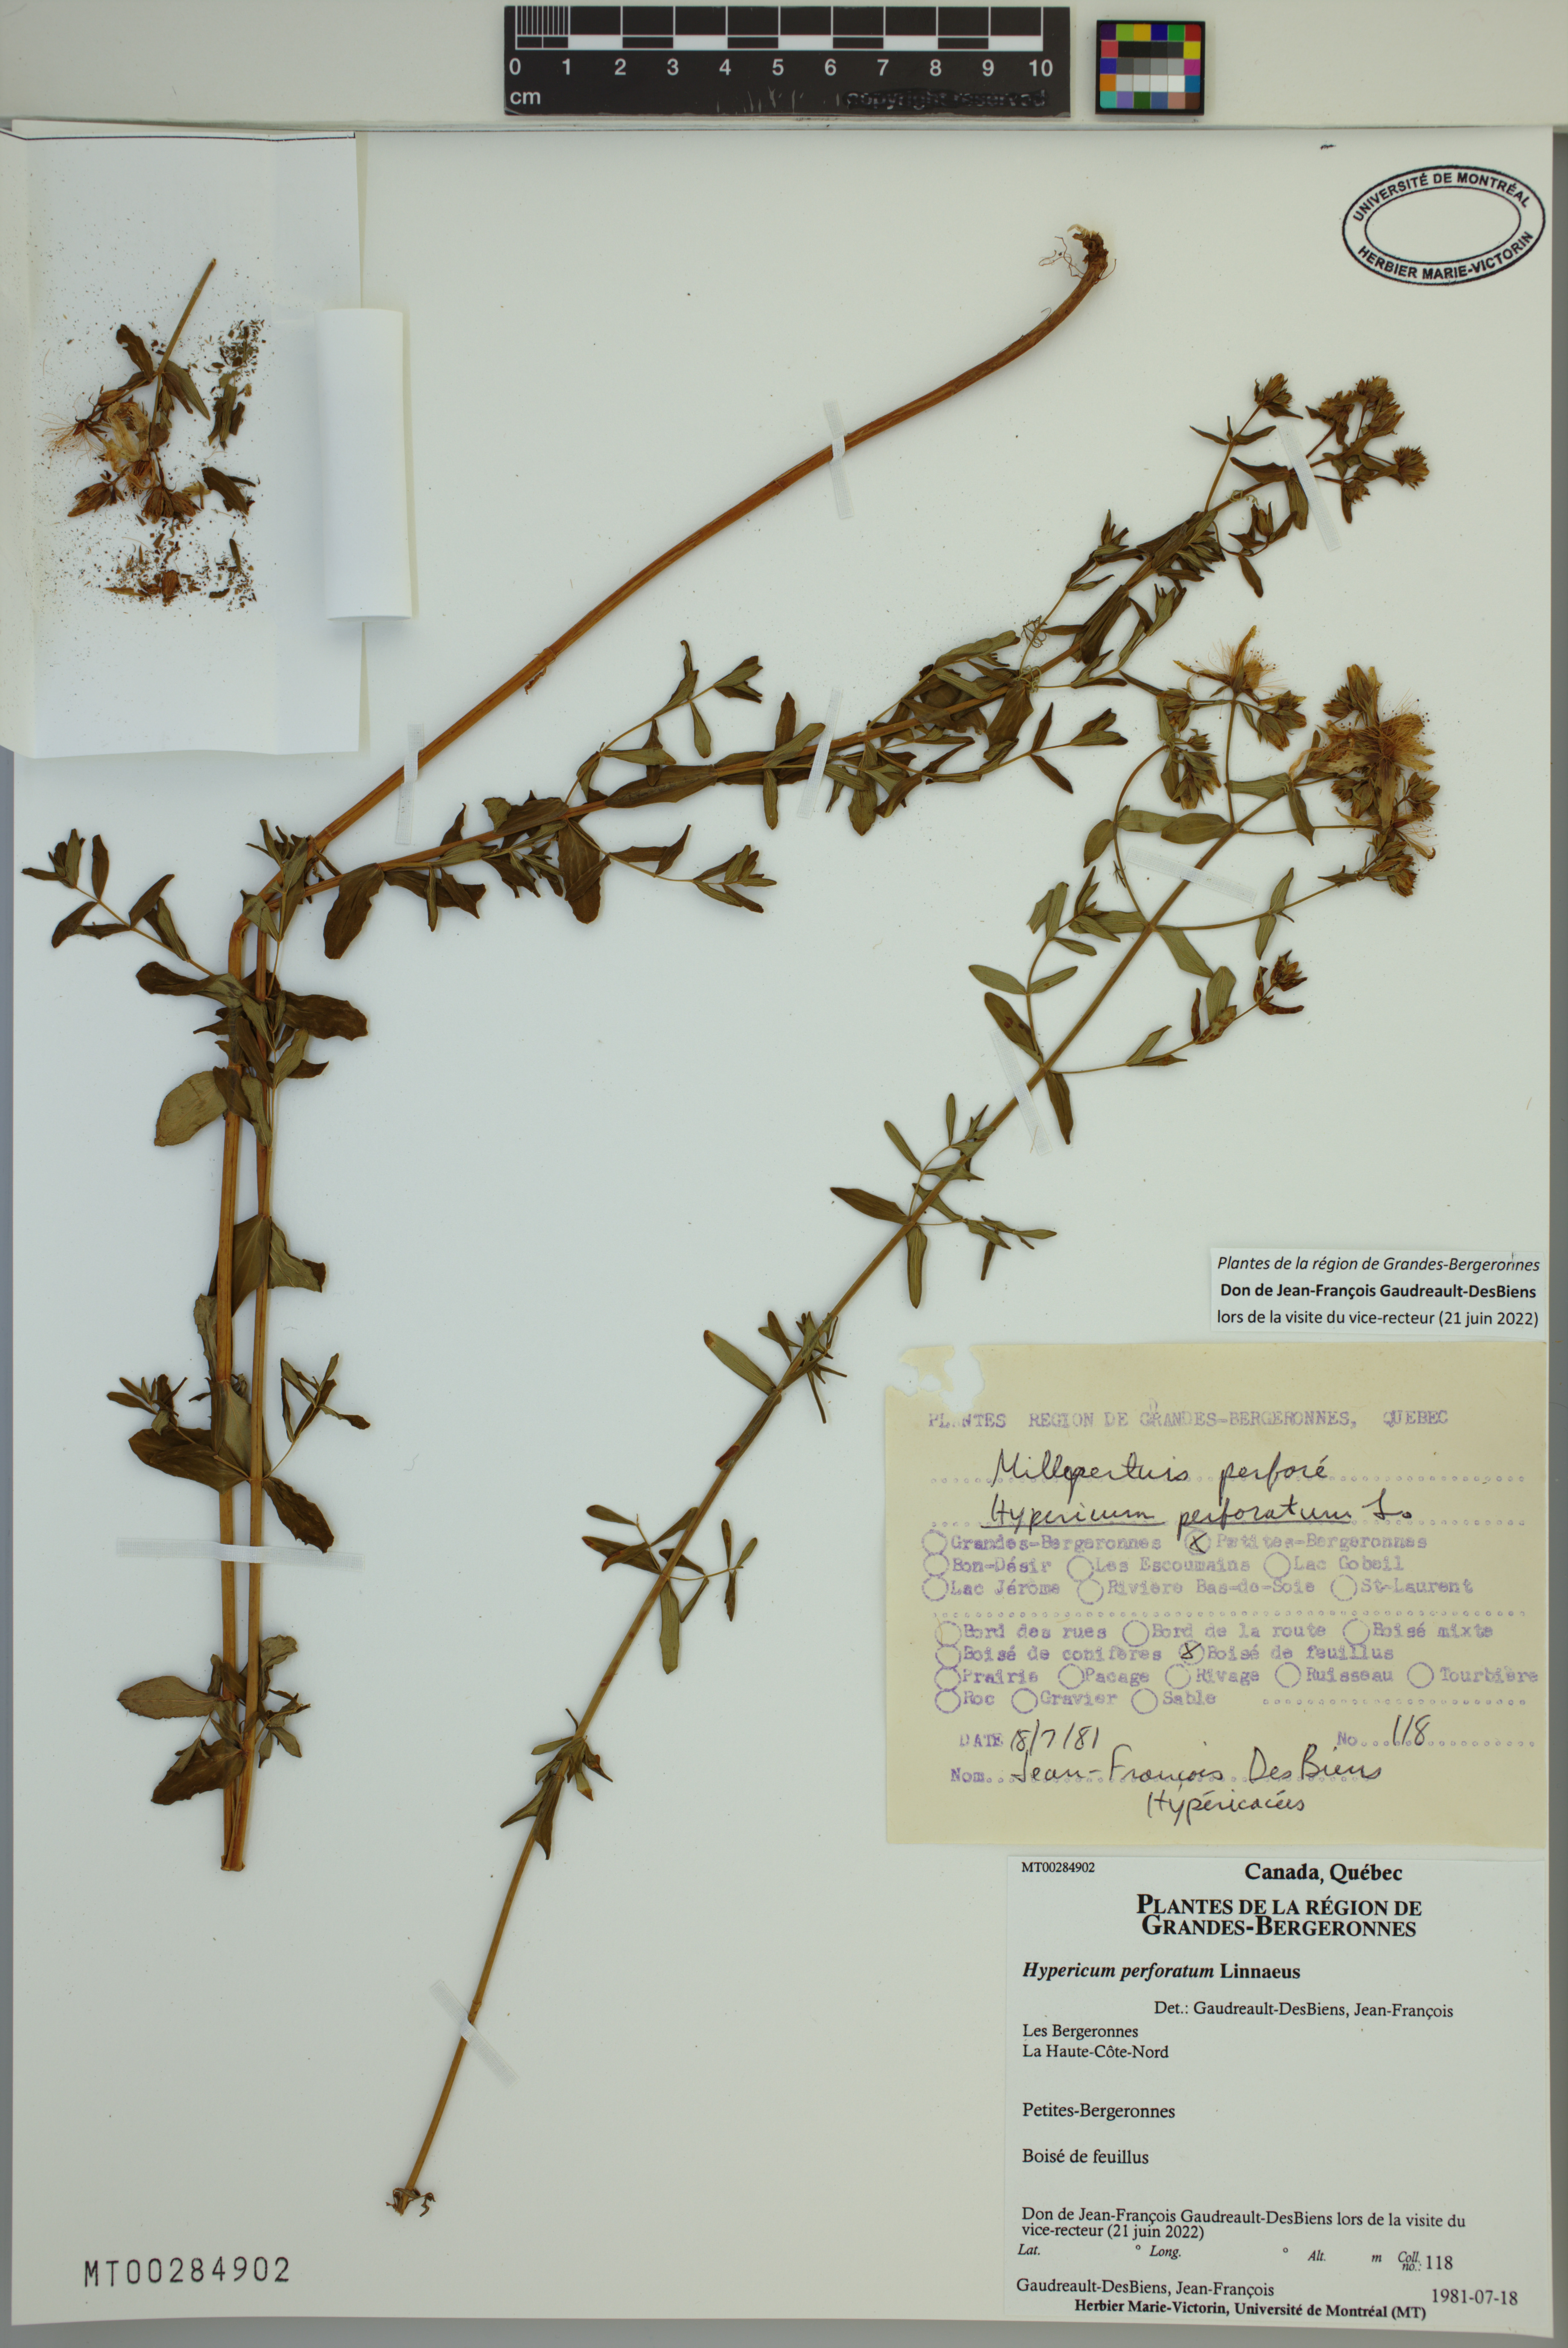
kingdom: Plantae
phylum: Tracheophyta
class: Magnoliopsida
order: Malpighiales
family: Hypericaceae
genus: Hypericum
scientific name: Hypericum perforatum
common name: Common st. johnswort
